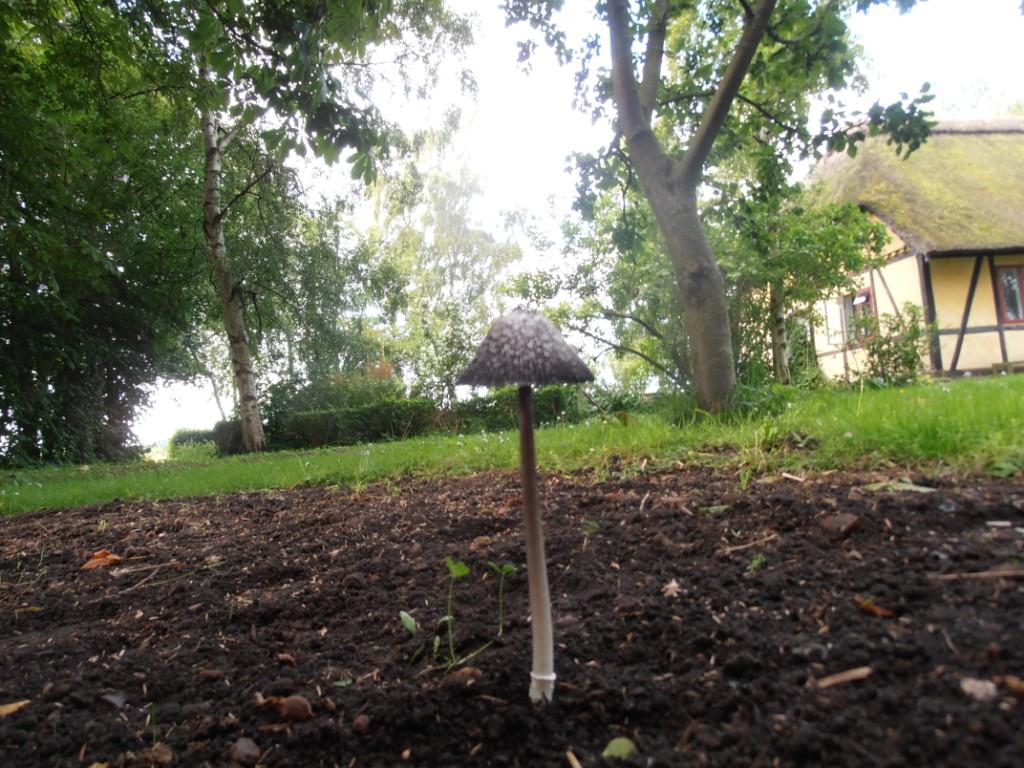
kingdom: Fungi
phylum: Basidiomycota
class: Agaricomycetes
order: Agaricales
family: Agaricaceae
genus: Coprinus
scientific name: Coprinus sterquilinus
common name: møg-parykhat
